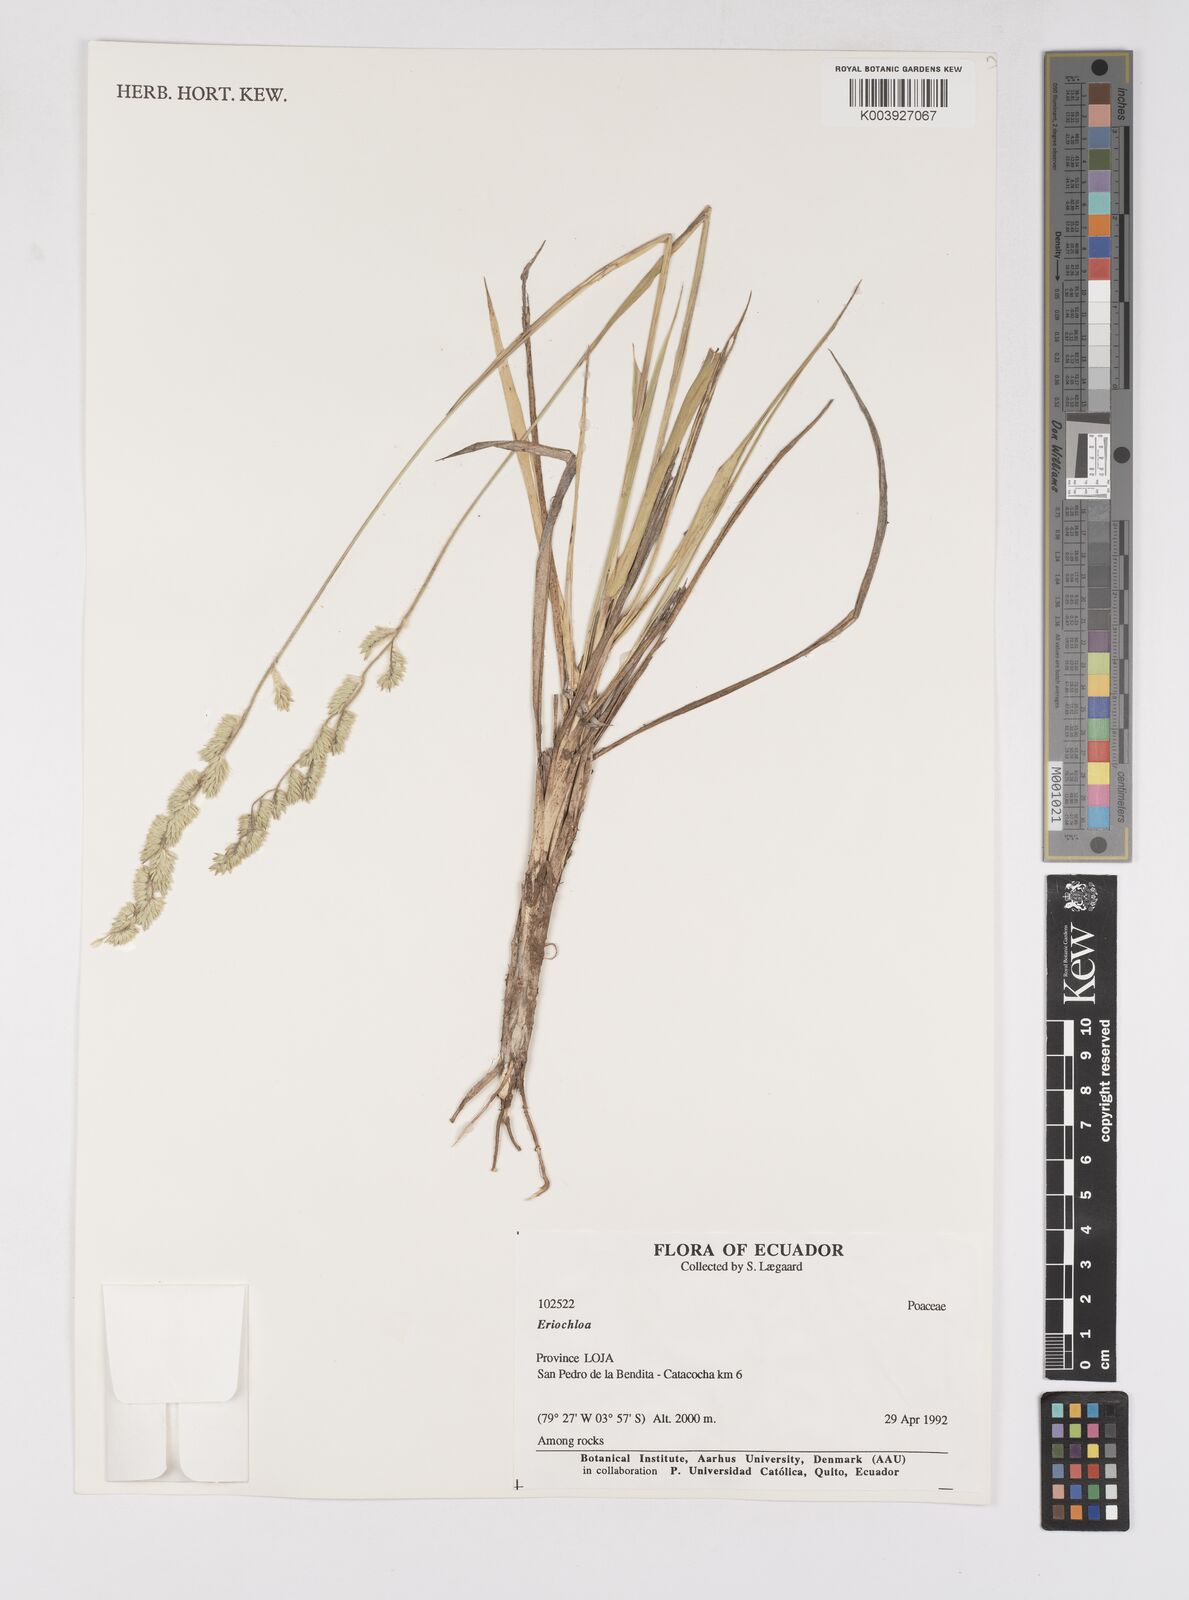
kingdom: Plantae
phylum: Tracheophyta
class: Liliopsida
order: Poales
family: Poaceae
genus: Eriochloa
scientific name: Eriochloa weberbaueri
